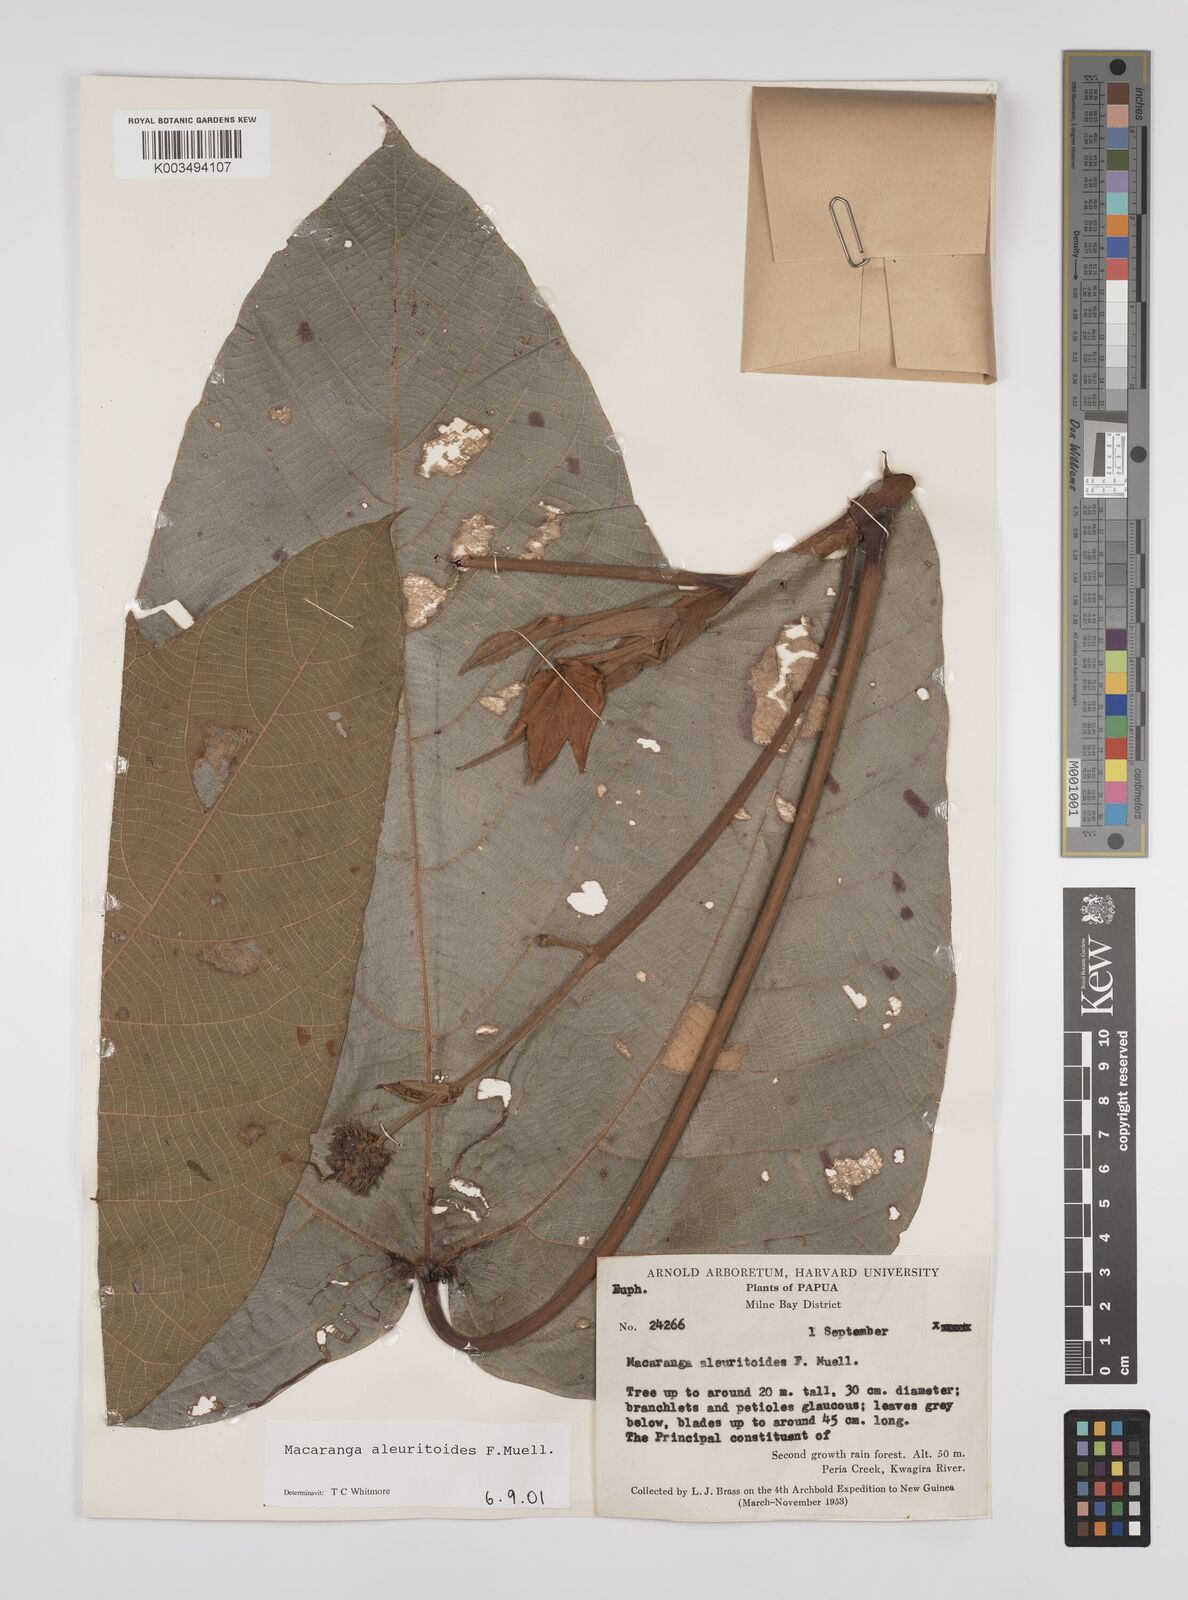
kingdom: Plantae
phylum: Tracheophyta
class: Magnoliopsida
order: Malpighiales
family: Euphorbiaceae
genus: Macaranga
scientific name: Macaranga aleuritoides
